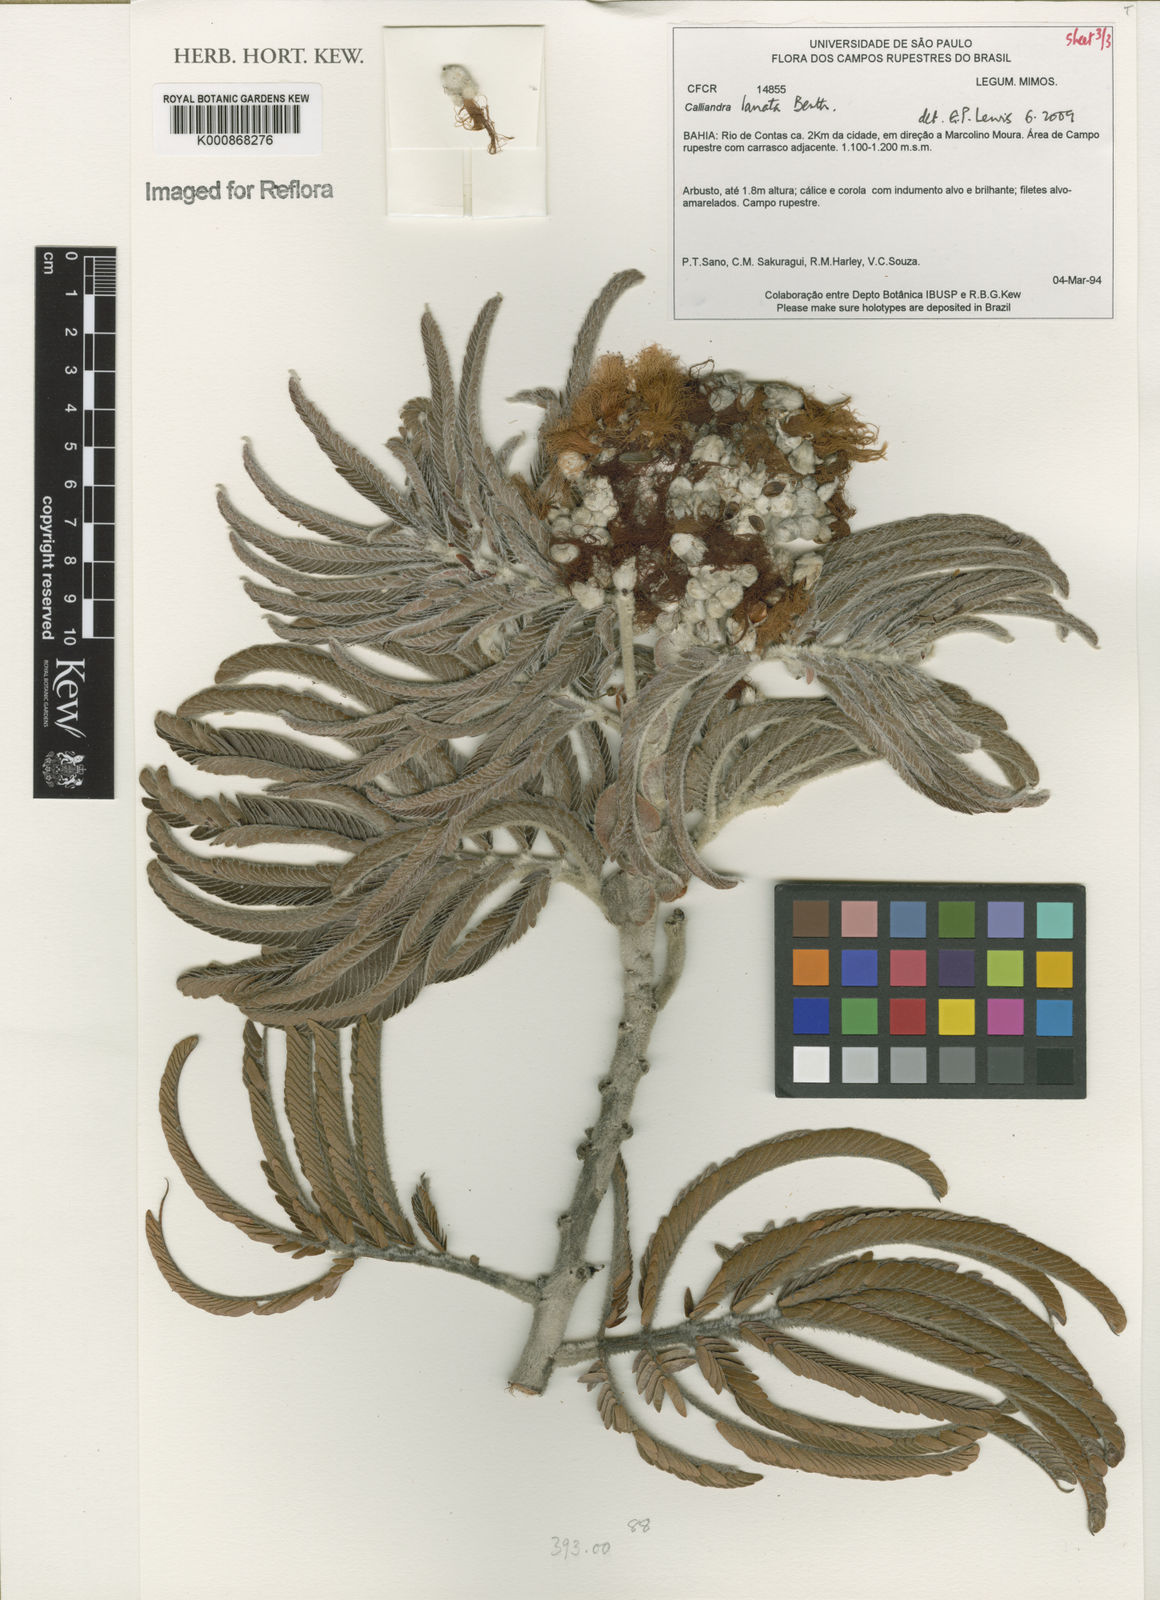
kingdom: Plantae
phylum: Tracheophyta
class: Magnoliopsida
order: Fabales
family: Fabaceae
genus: Calliandra
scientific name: Calliandra lanata
